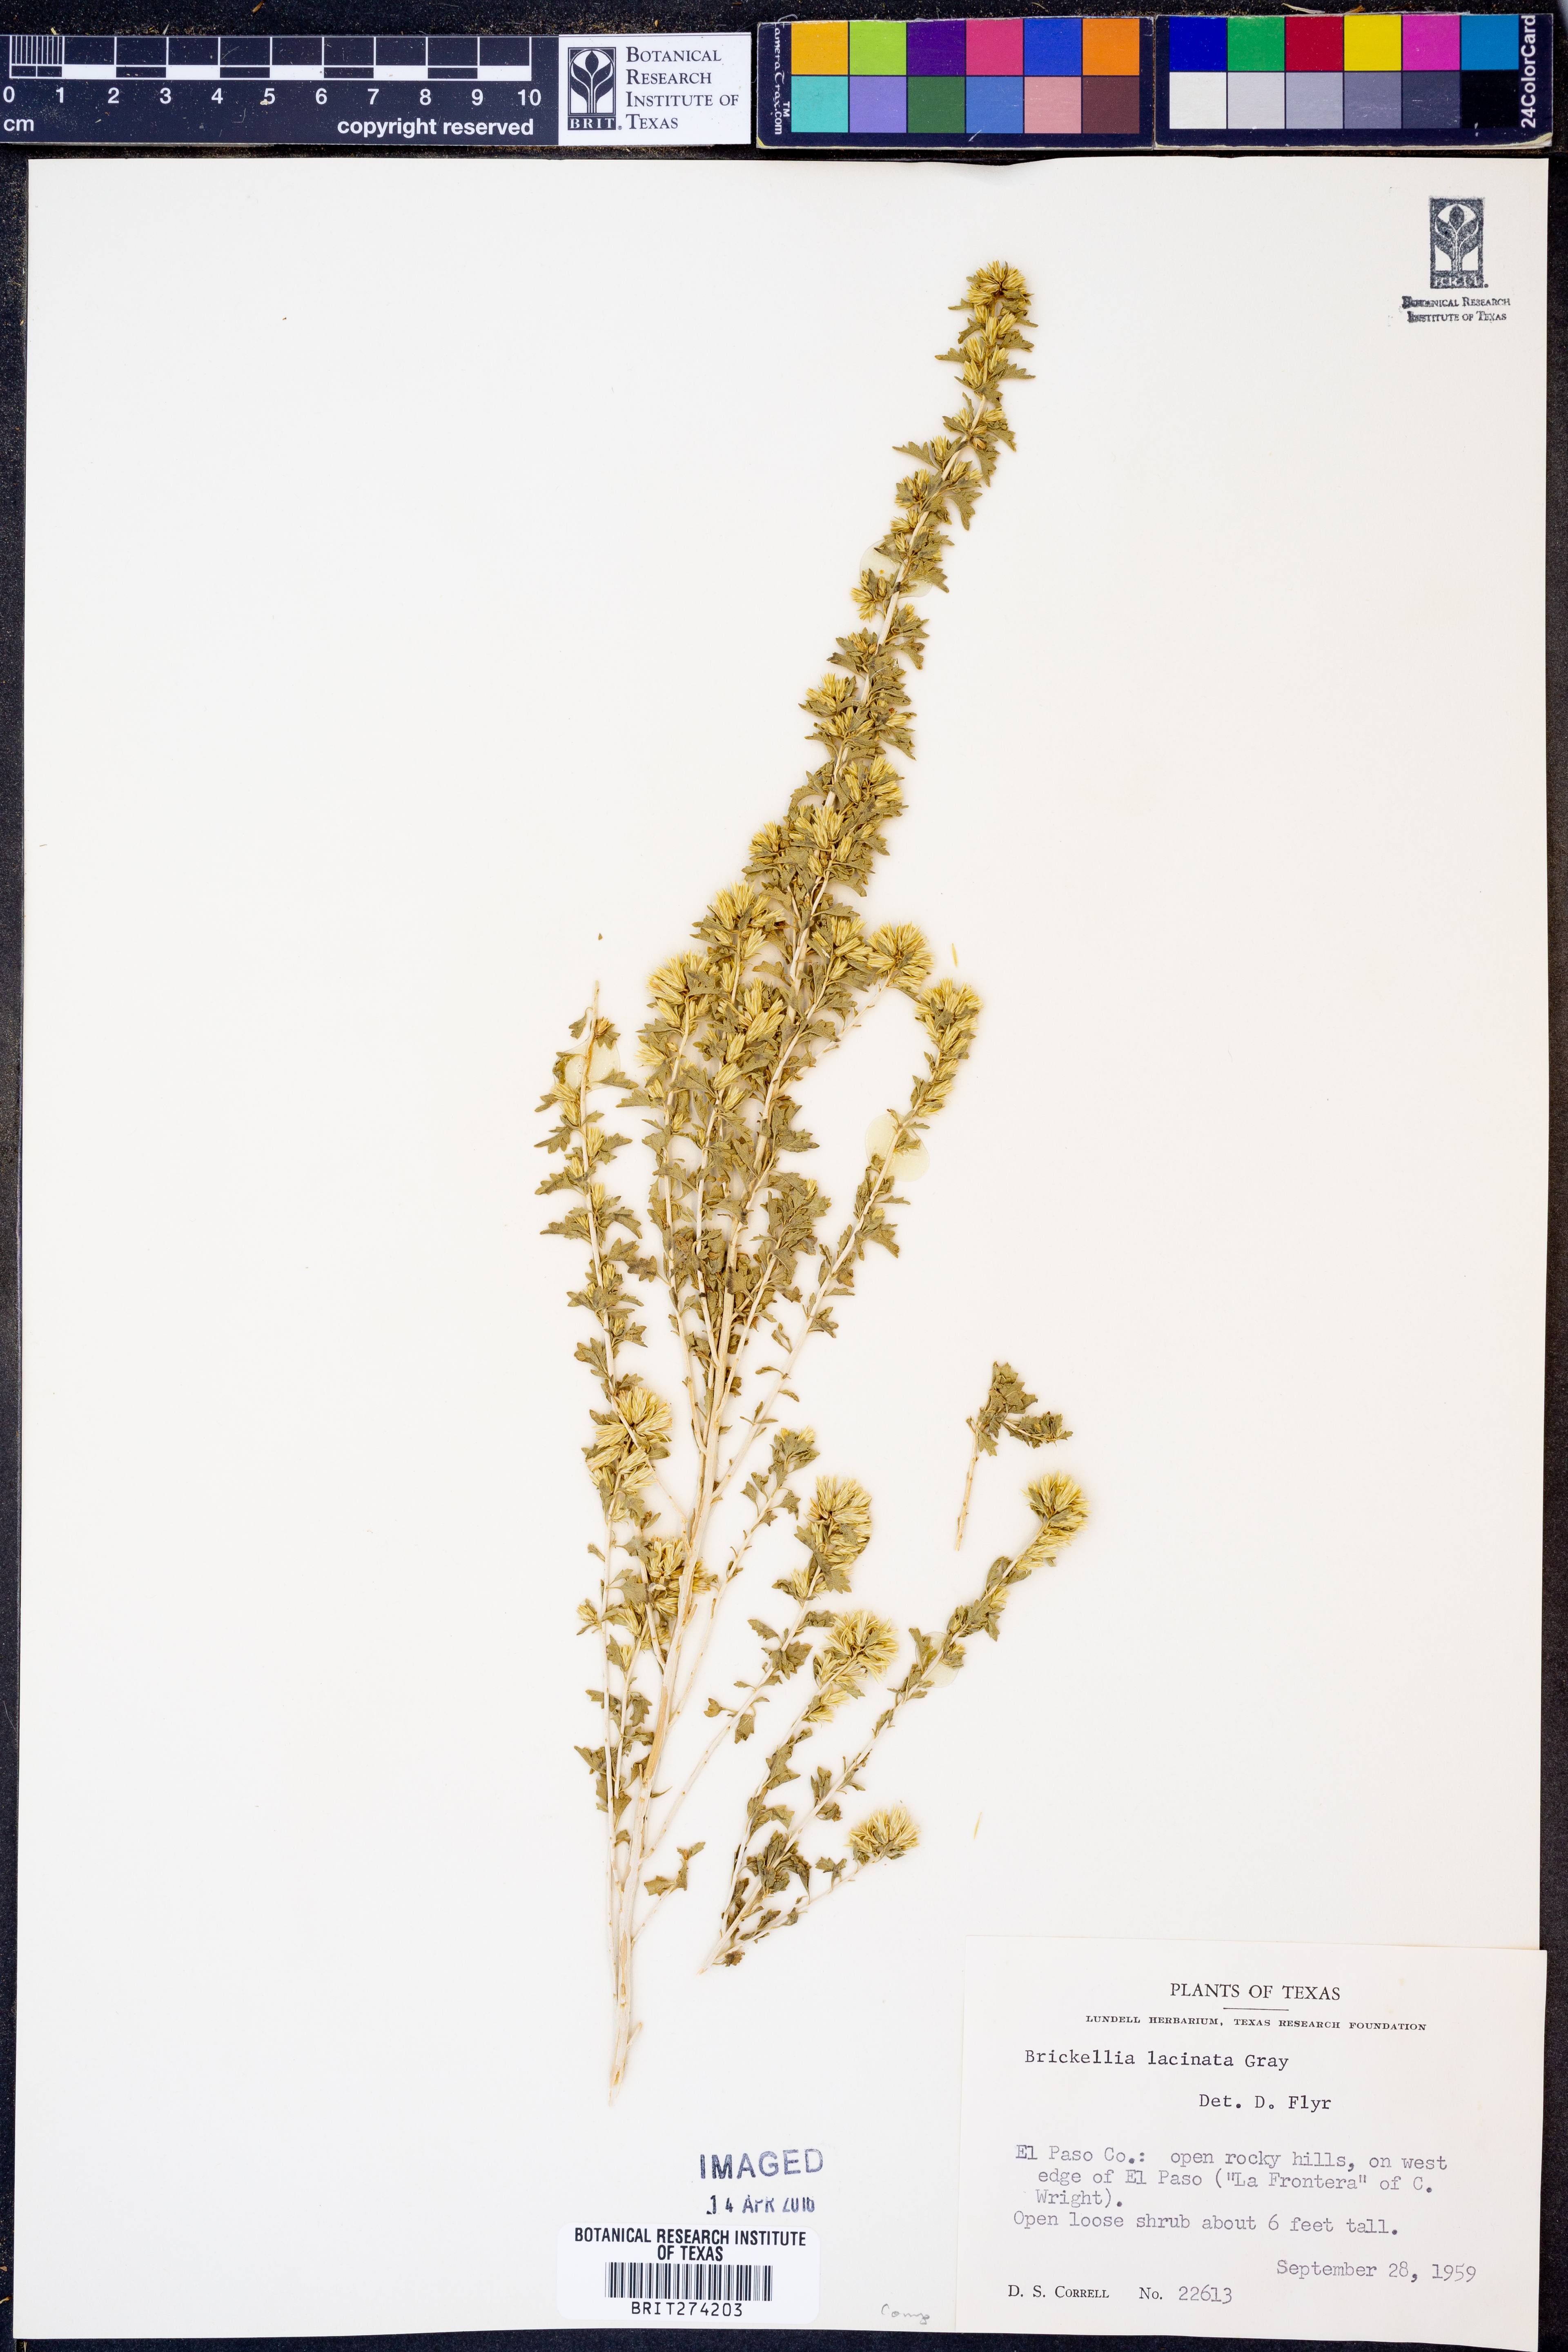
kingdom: Plantae
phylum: Tracheophyta
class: Magnoliopsida
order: Asterales
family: Asteraceae
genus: Brickellia
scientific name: Brickellia laciniata
